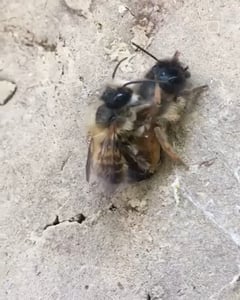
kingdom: Animalia
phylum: Arthropoda
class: Insecta
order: Hymenoptera
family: Megachilidae
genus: Osmia
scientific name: Osmia bicornis
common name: Red mason bee
